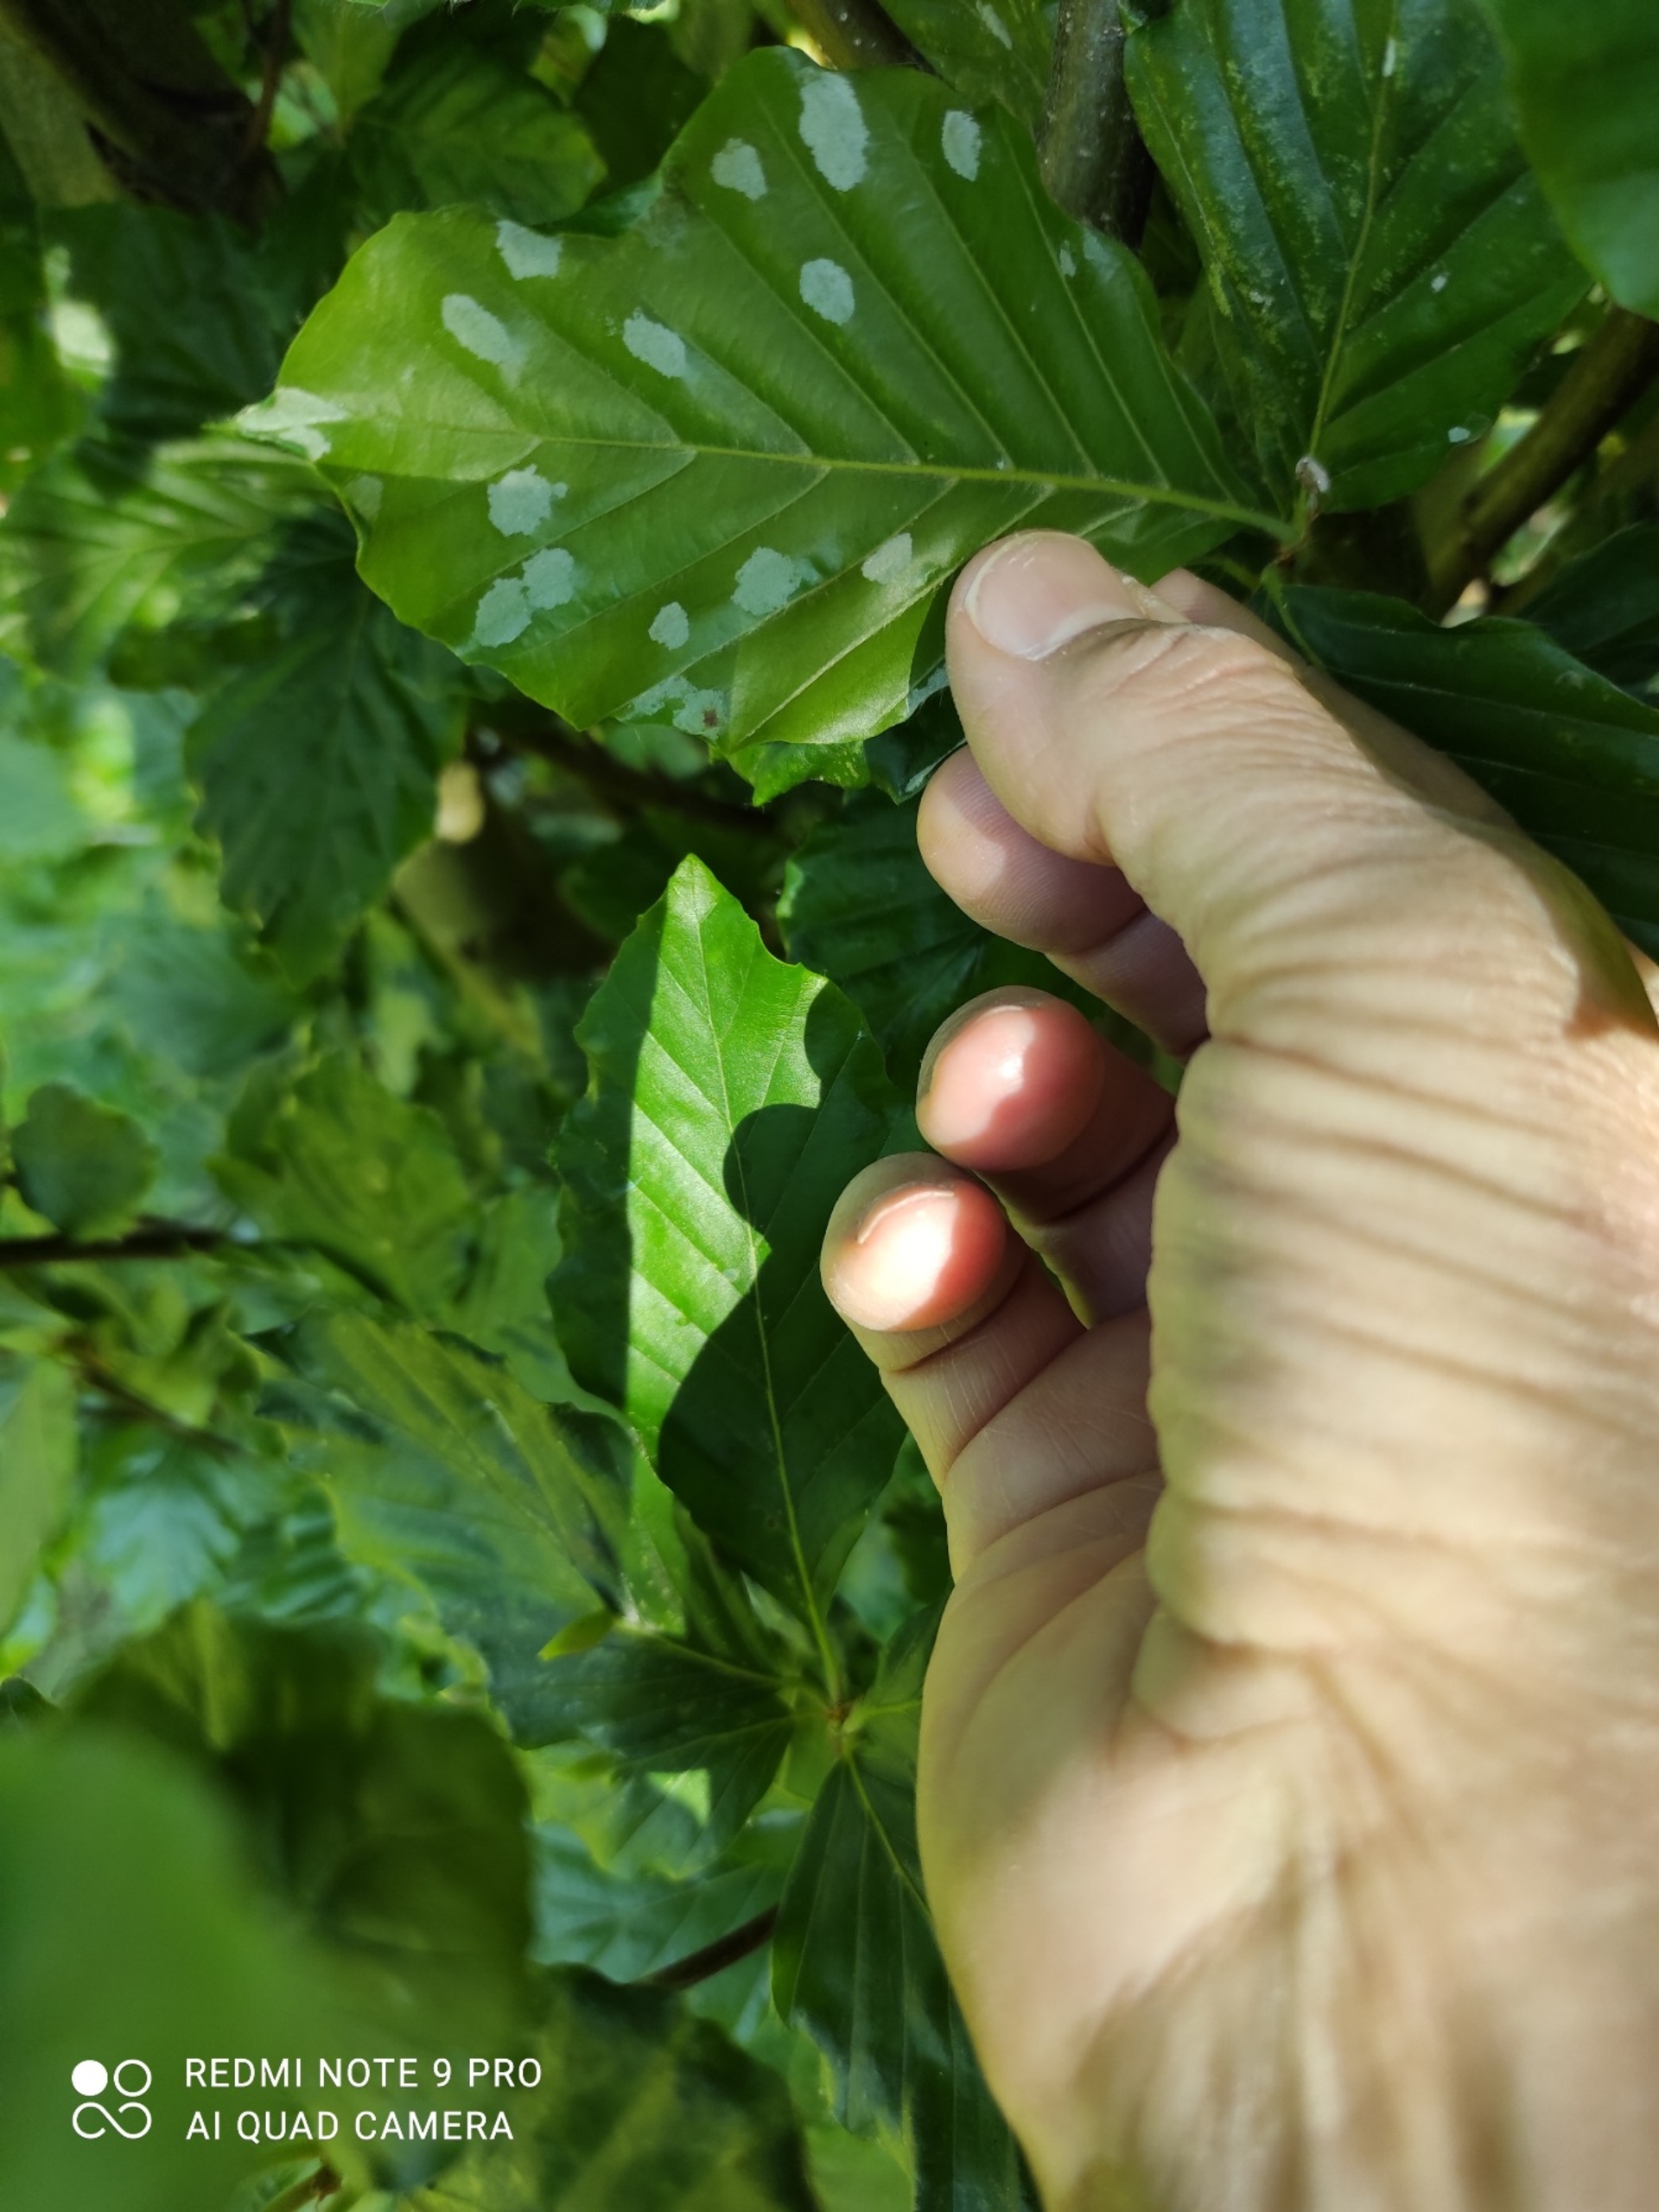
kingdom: Animalia
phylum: Arthropoda
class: Insecta
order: Diptera
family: Cecidomyiidae
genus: Mikiola
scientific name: Mikiola fagi
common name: Bøgegalmyg
